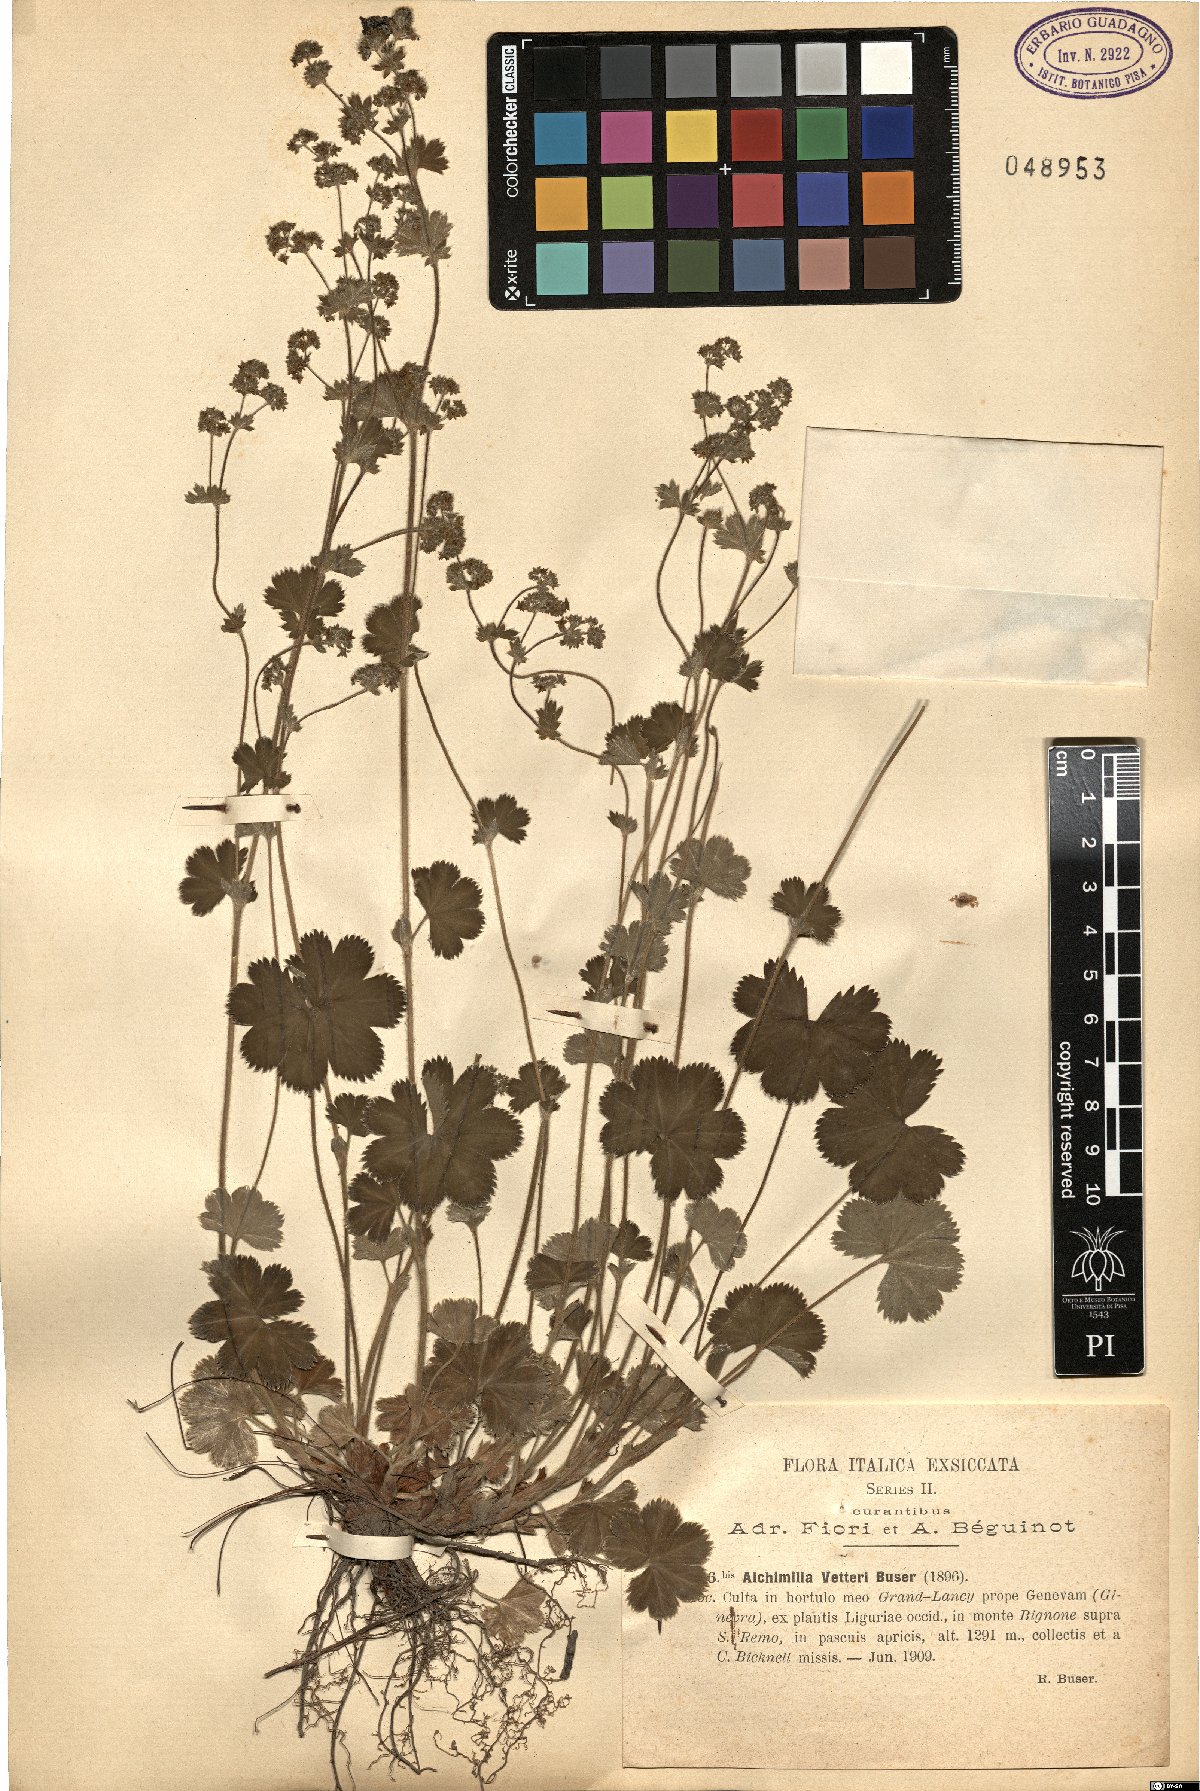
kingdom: Plantae
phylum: Tracheophyta
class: Magnoliopsida
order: Rosales
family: Rosaceae
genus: Alchemilla
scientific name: Alchemilla vetteri
